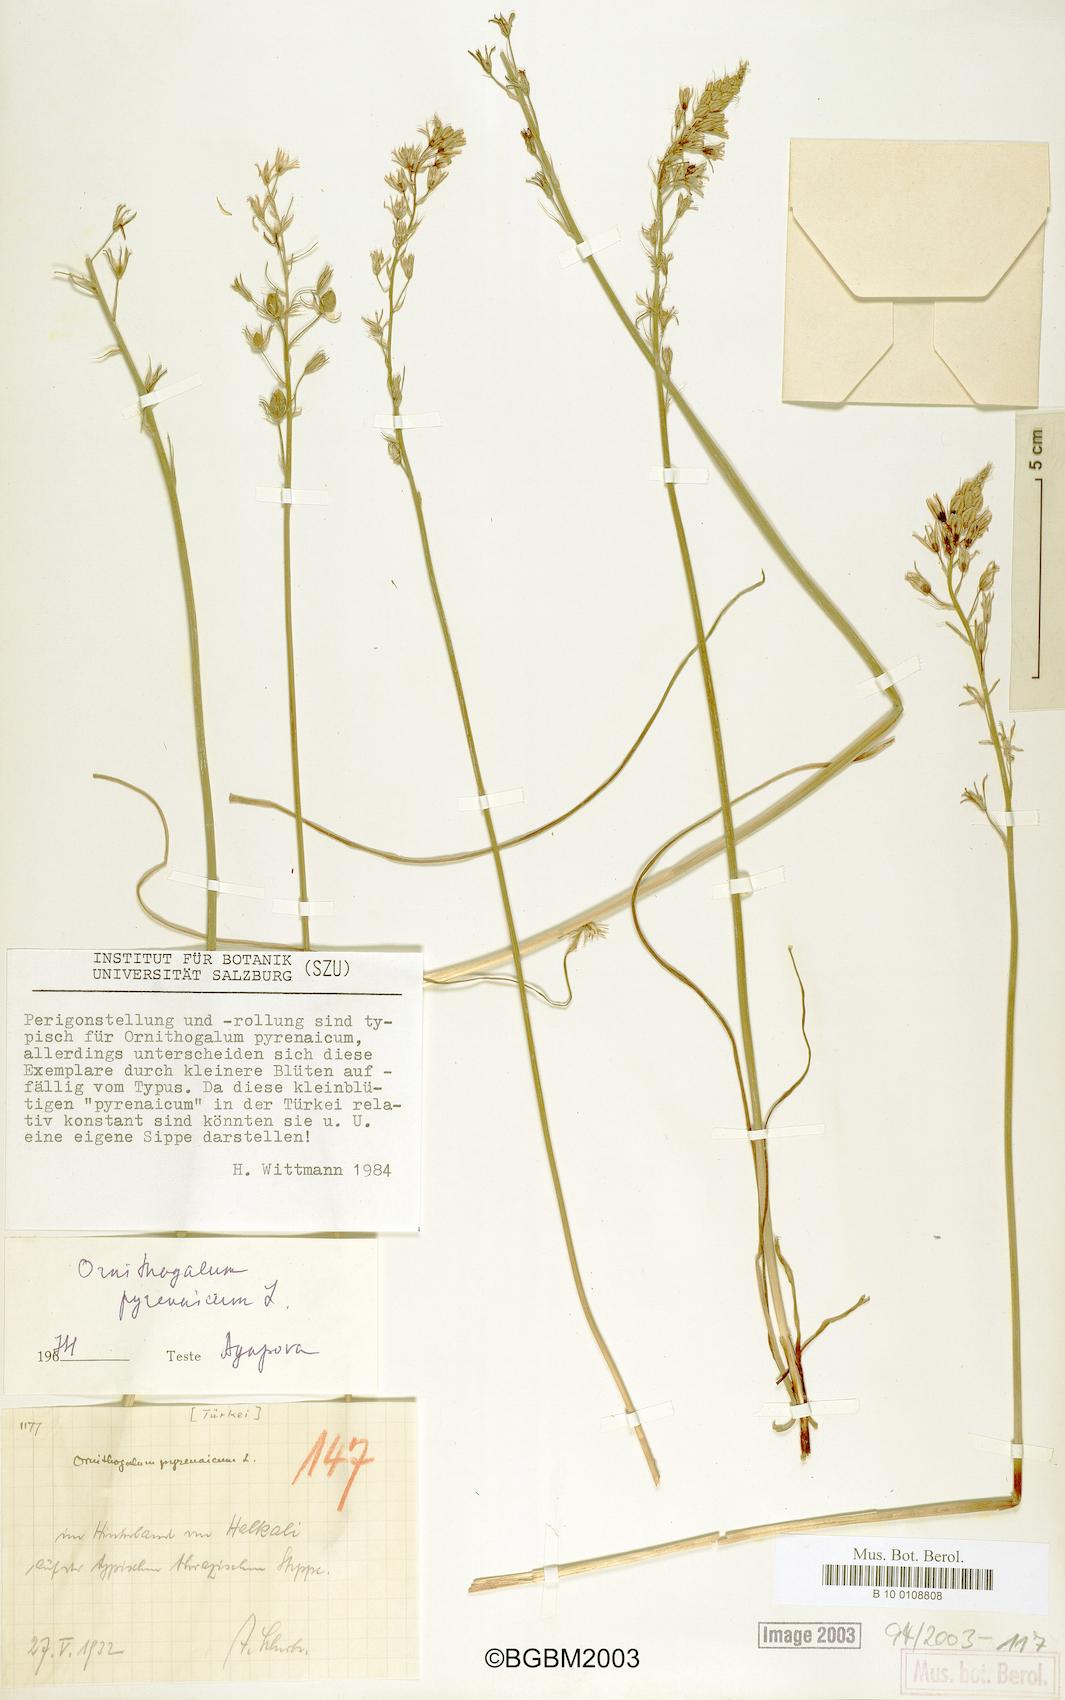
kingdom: Plantae
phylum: Tracheophyta
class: Liliopsida
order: Asparagales
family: Asparagaceae
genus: Ornithogalum
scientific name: Ornithogalum pyrenaicum
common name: Spiked star-of-bethlehem
